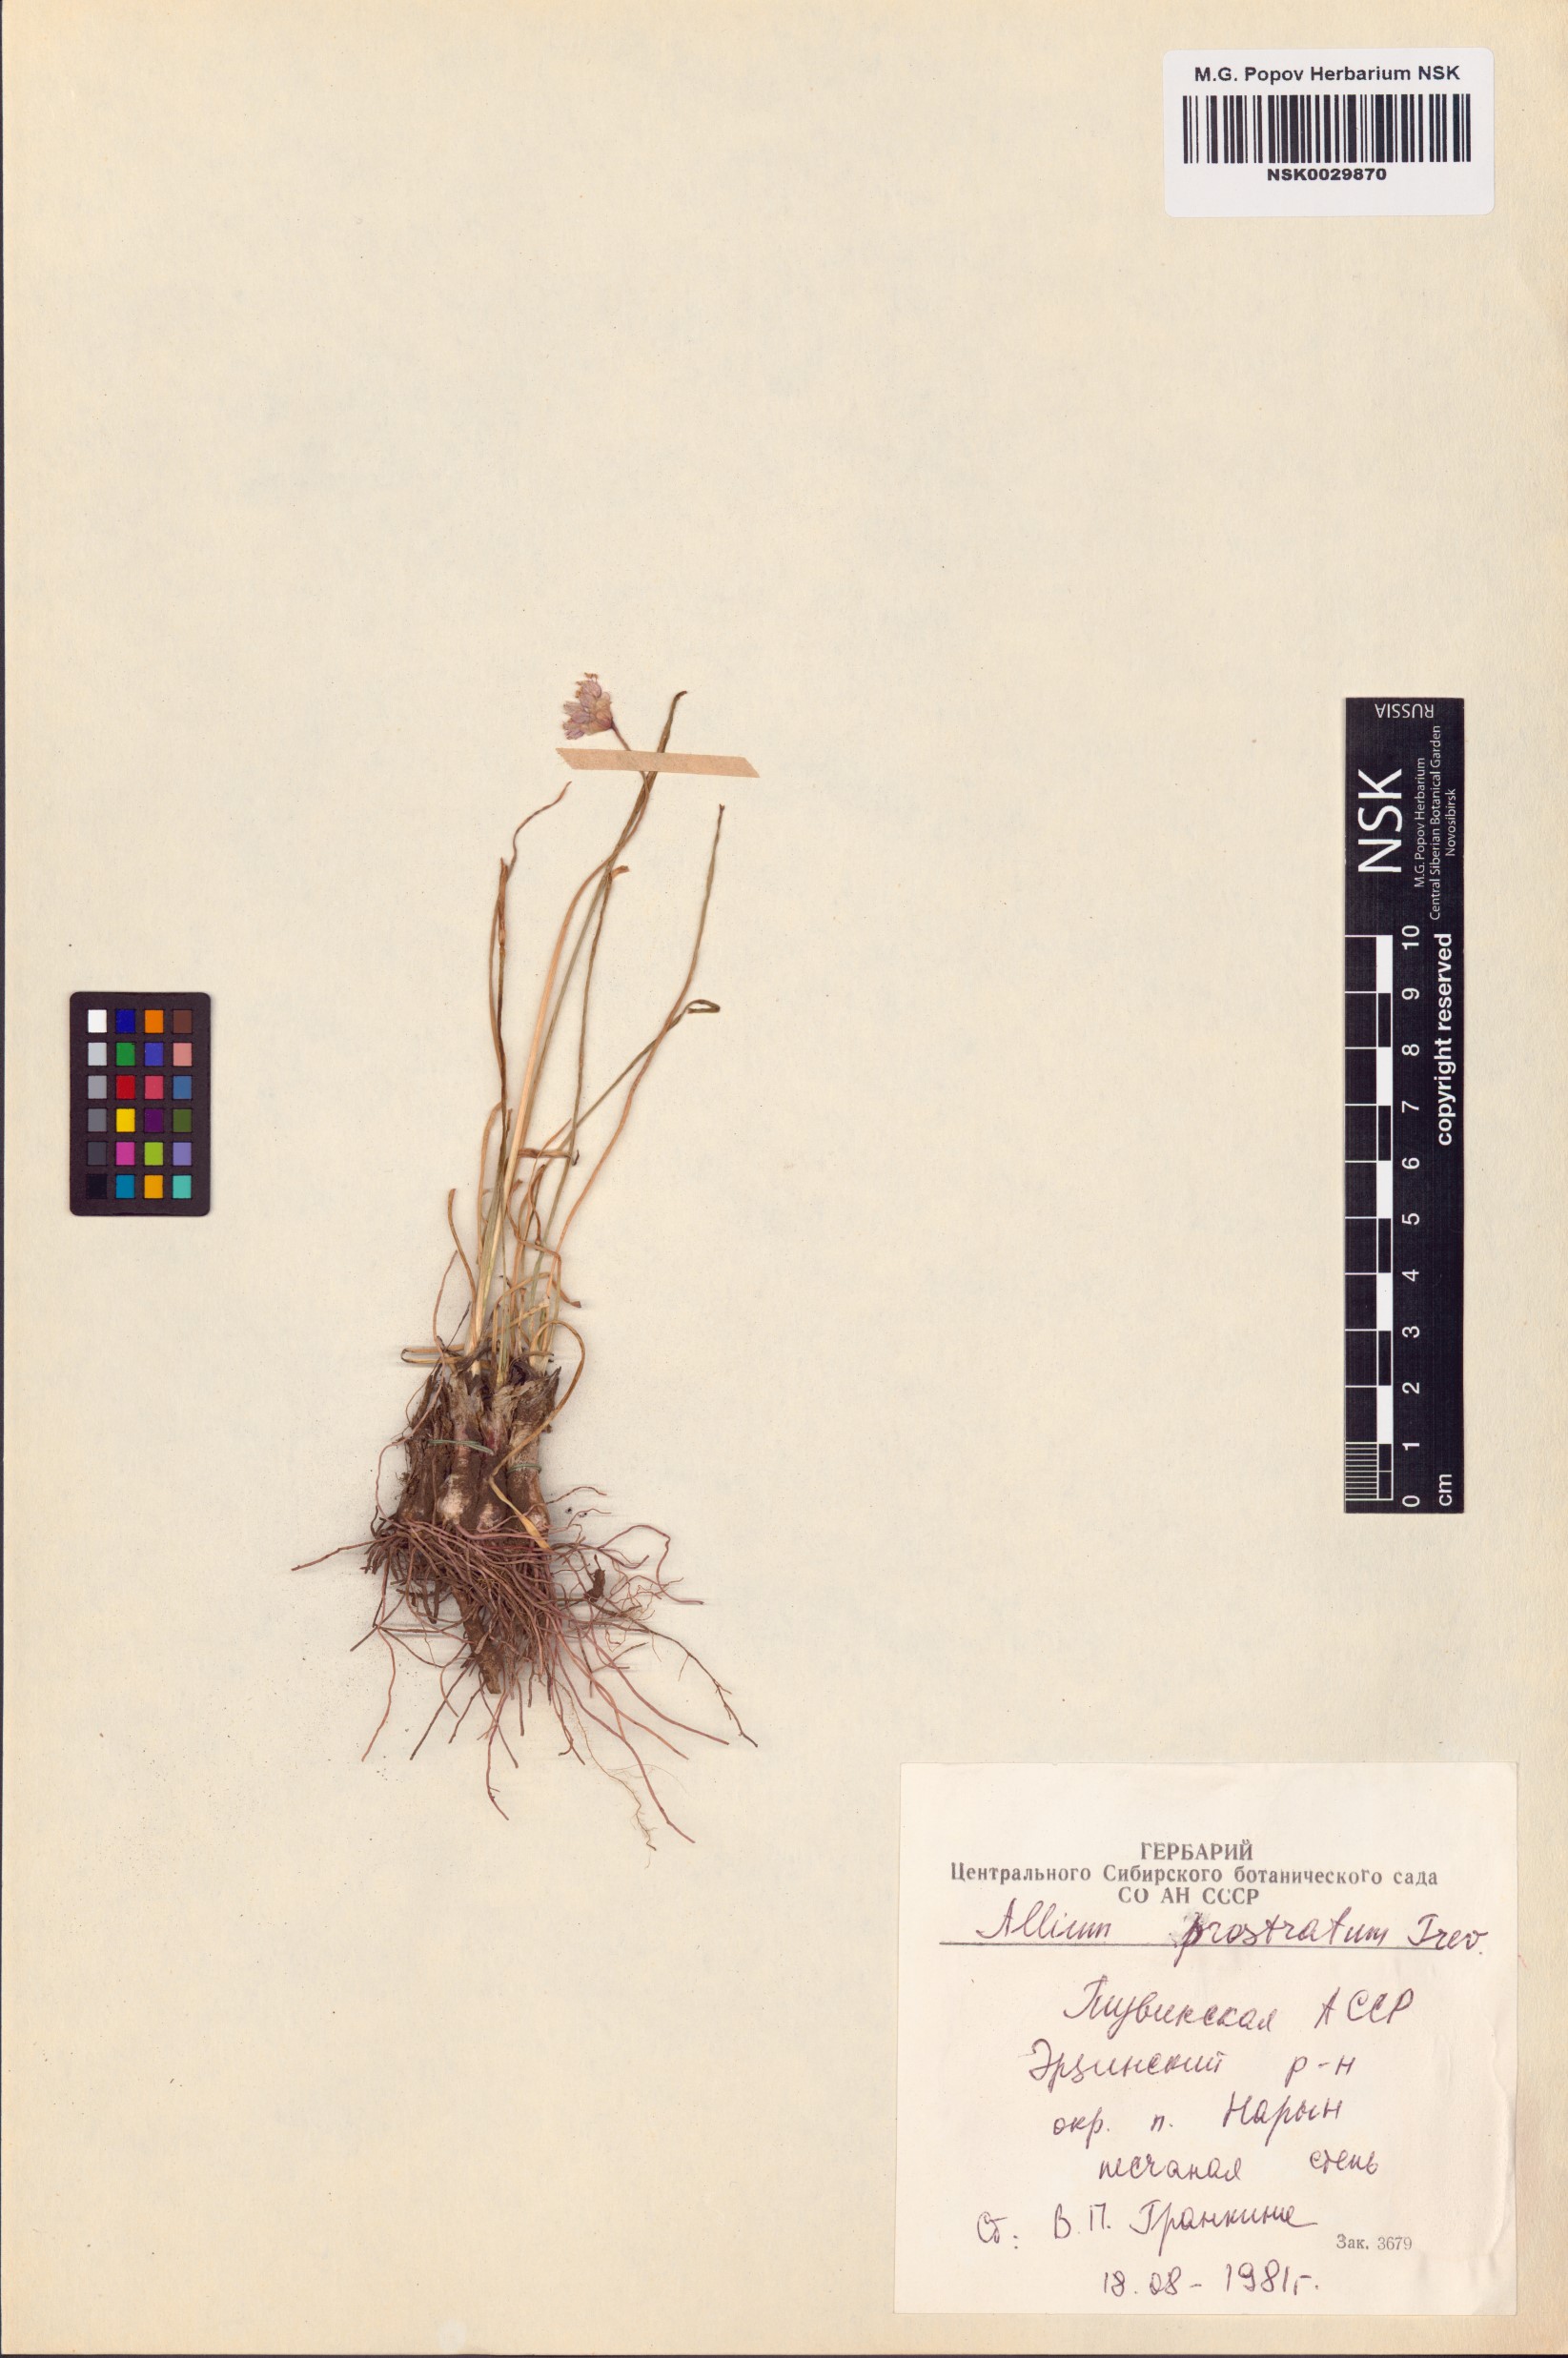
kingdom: Plantae
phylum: Tracheophyta
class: Liliopsida
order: Asparagales
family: Amaryllidaceae
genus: Allium
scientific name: Allium prostratum
